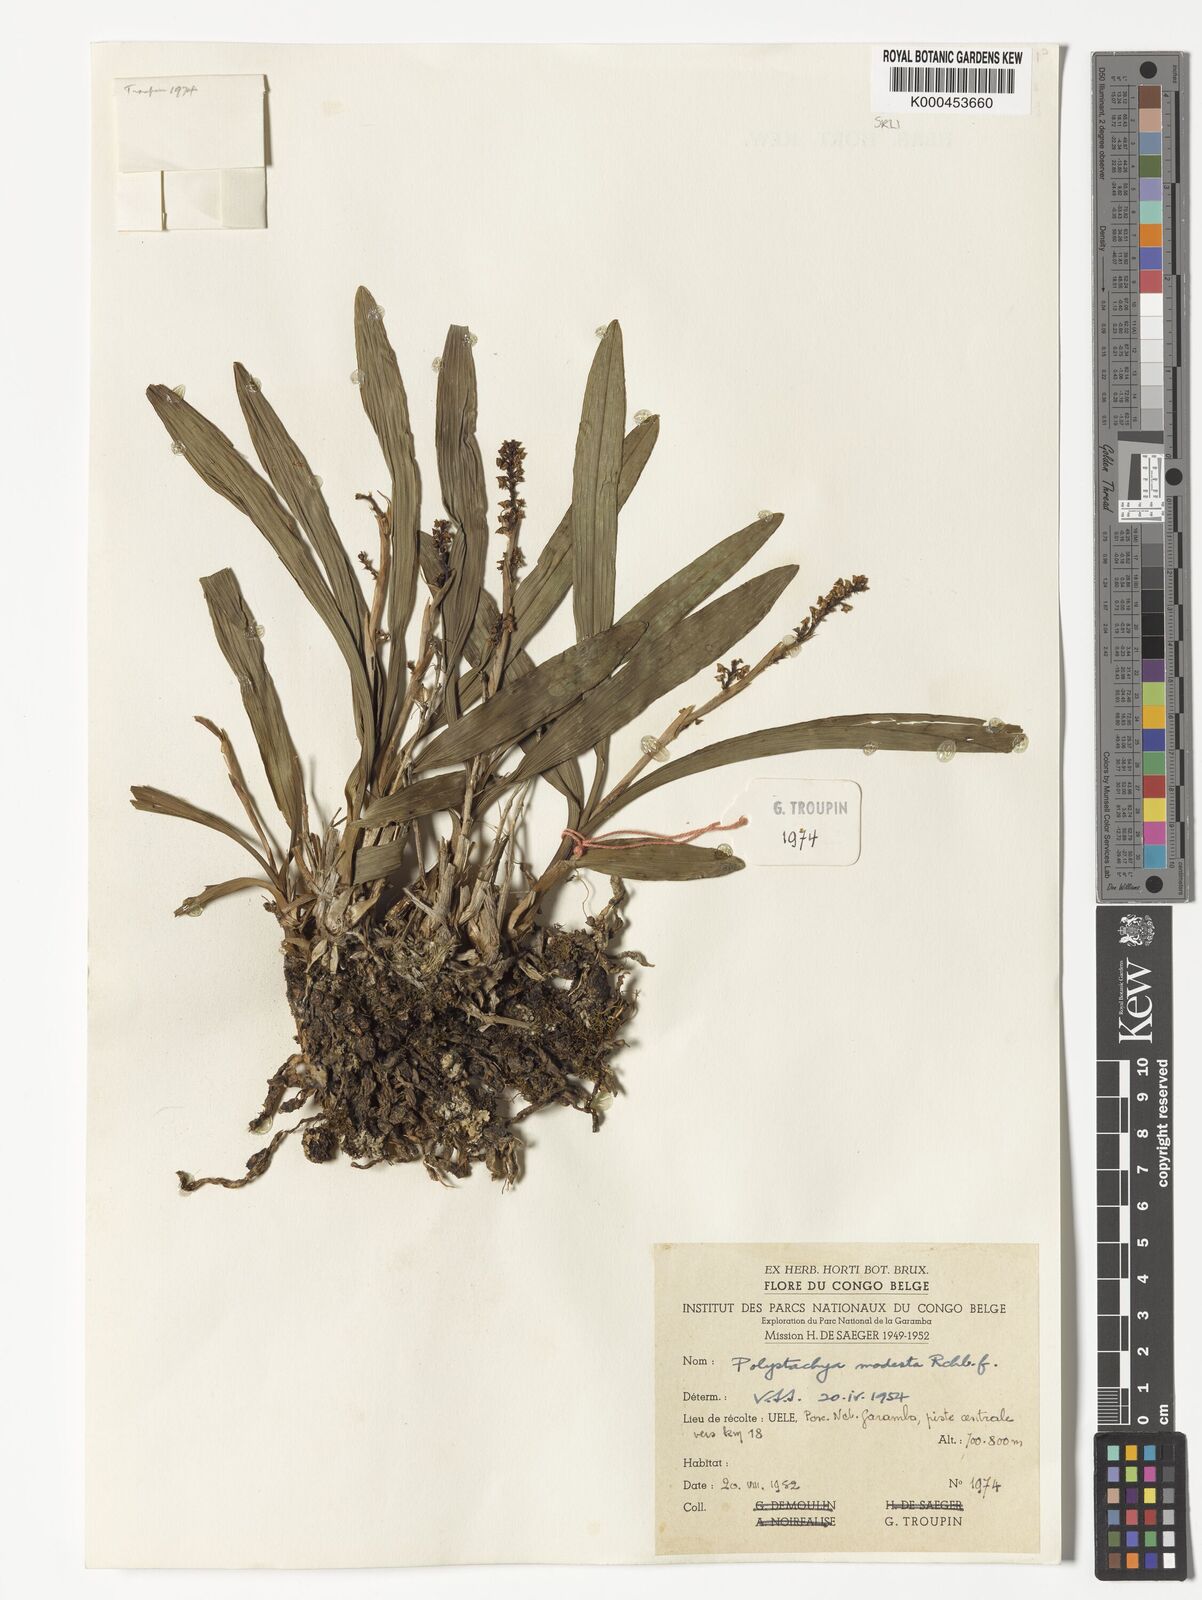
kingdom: Plantae
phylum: Tracheophyta
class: Liliopsida
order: Asparagales
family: Orchidaceae
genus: Polystachya
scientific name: Polystachya modesta
